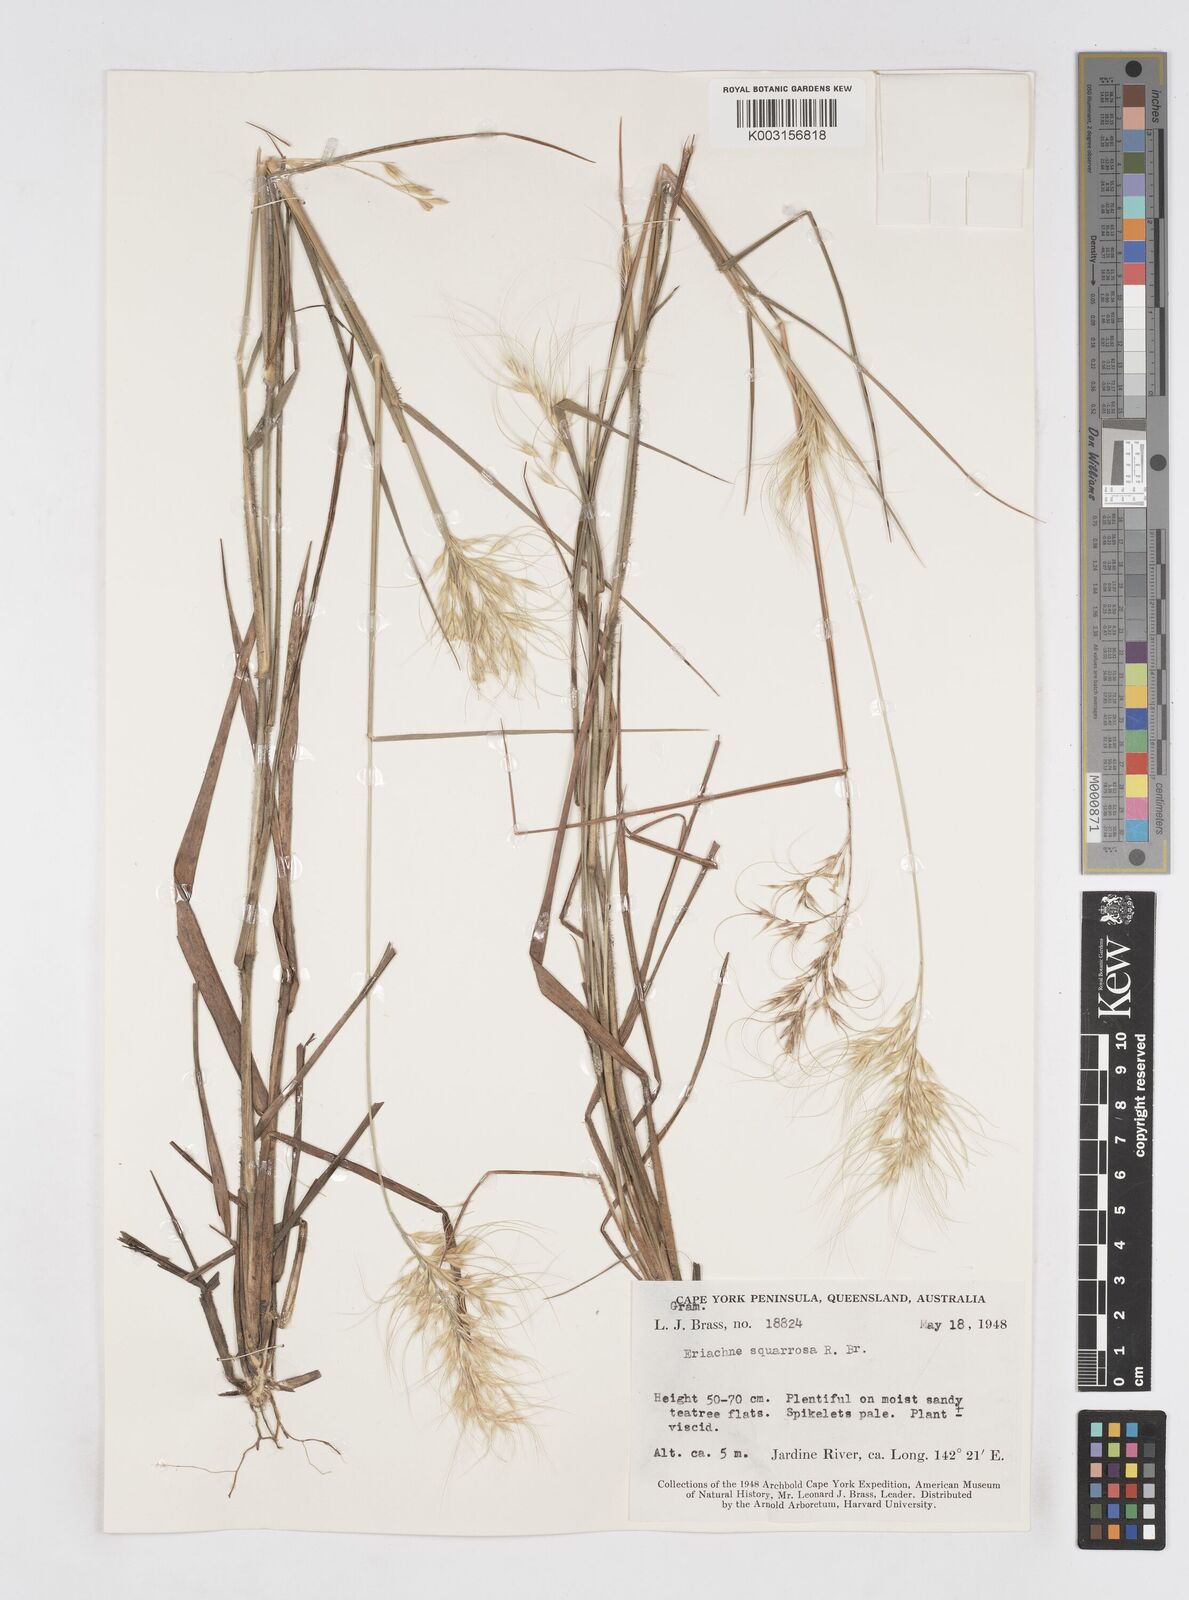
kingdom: Plantae
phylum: Tracheophyta
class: Liliopsida
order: Poales
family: Poaceae
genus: Eriachne
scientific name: Eriachne squarrosa
